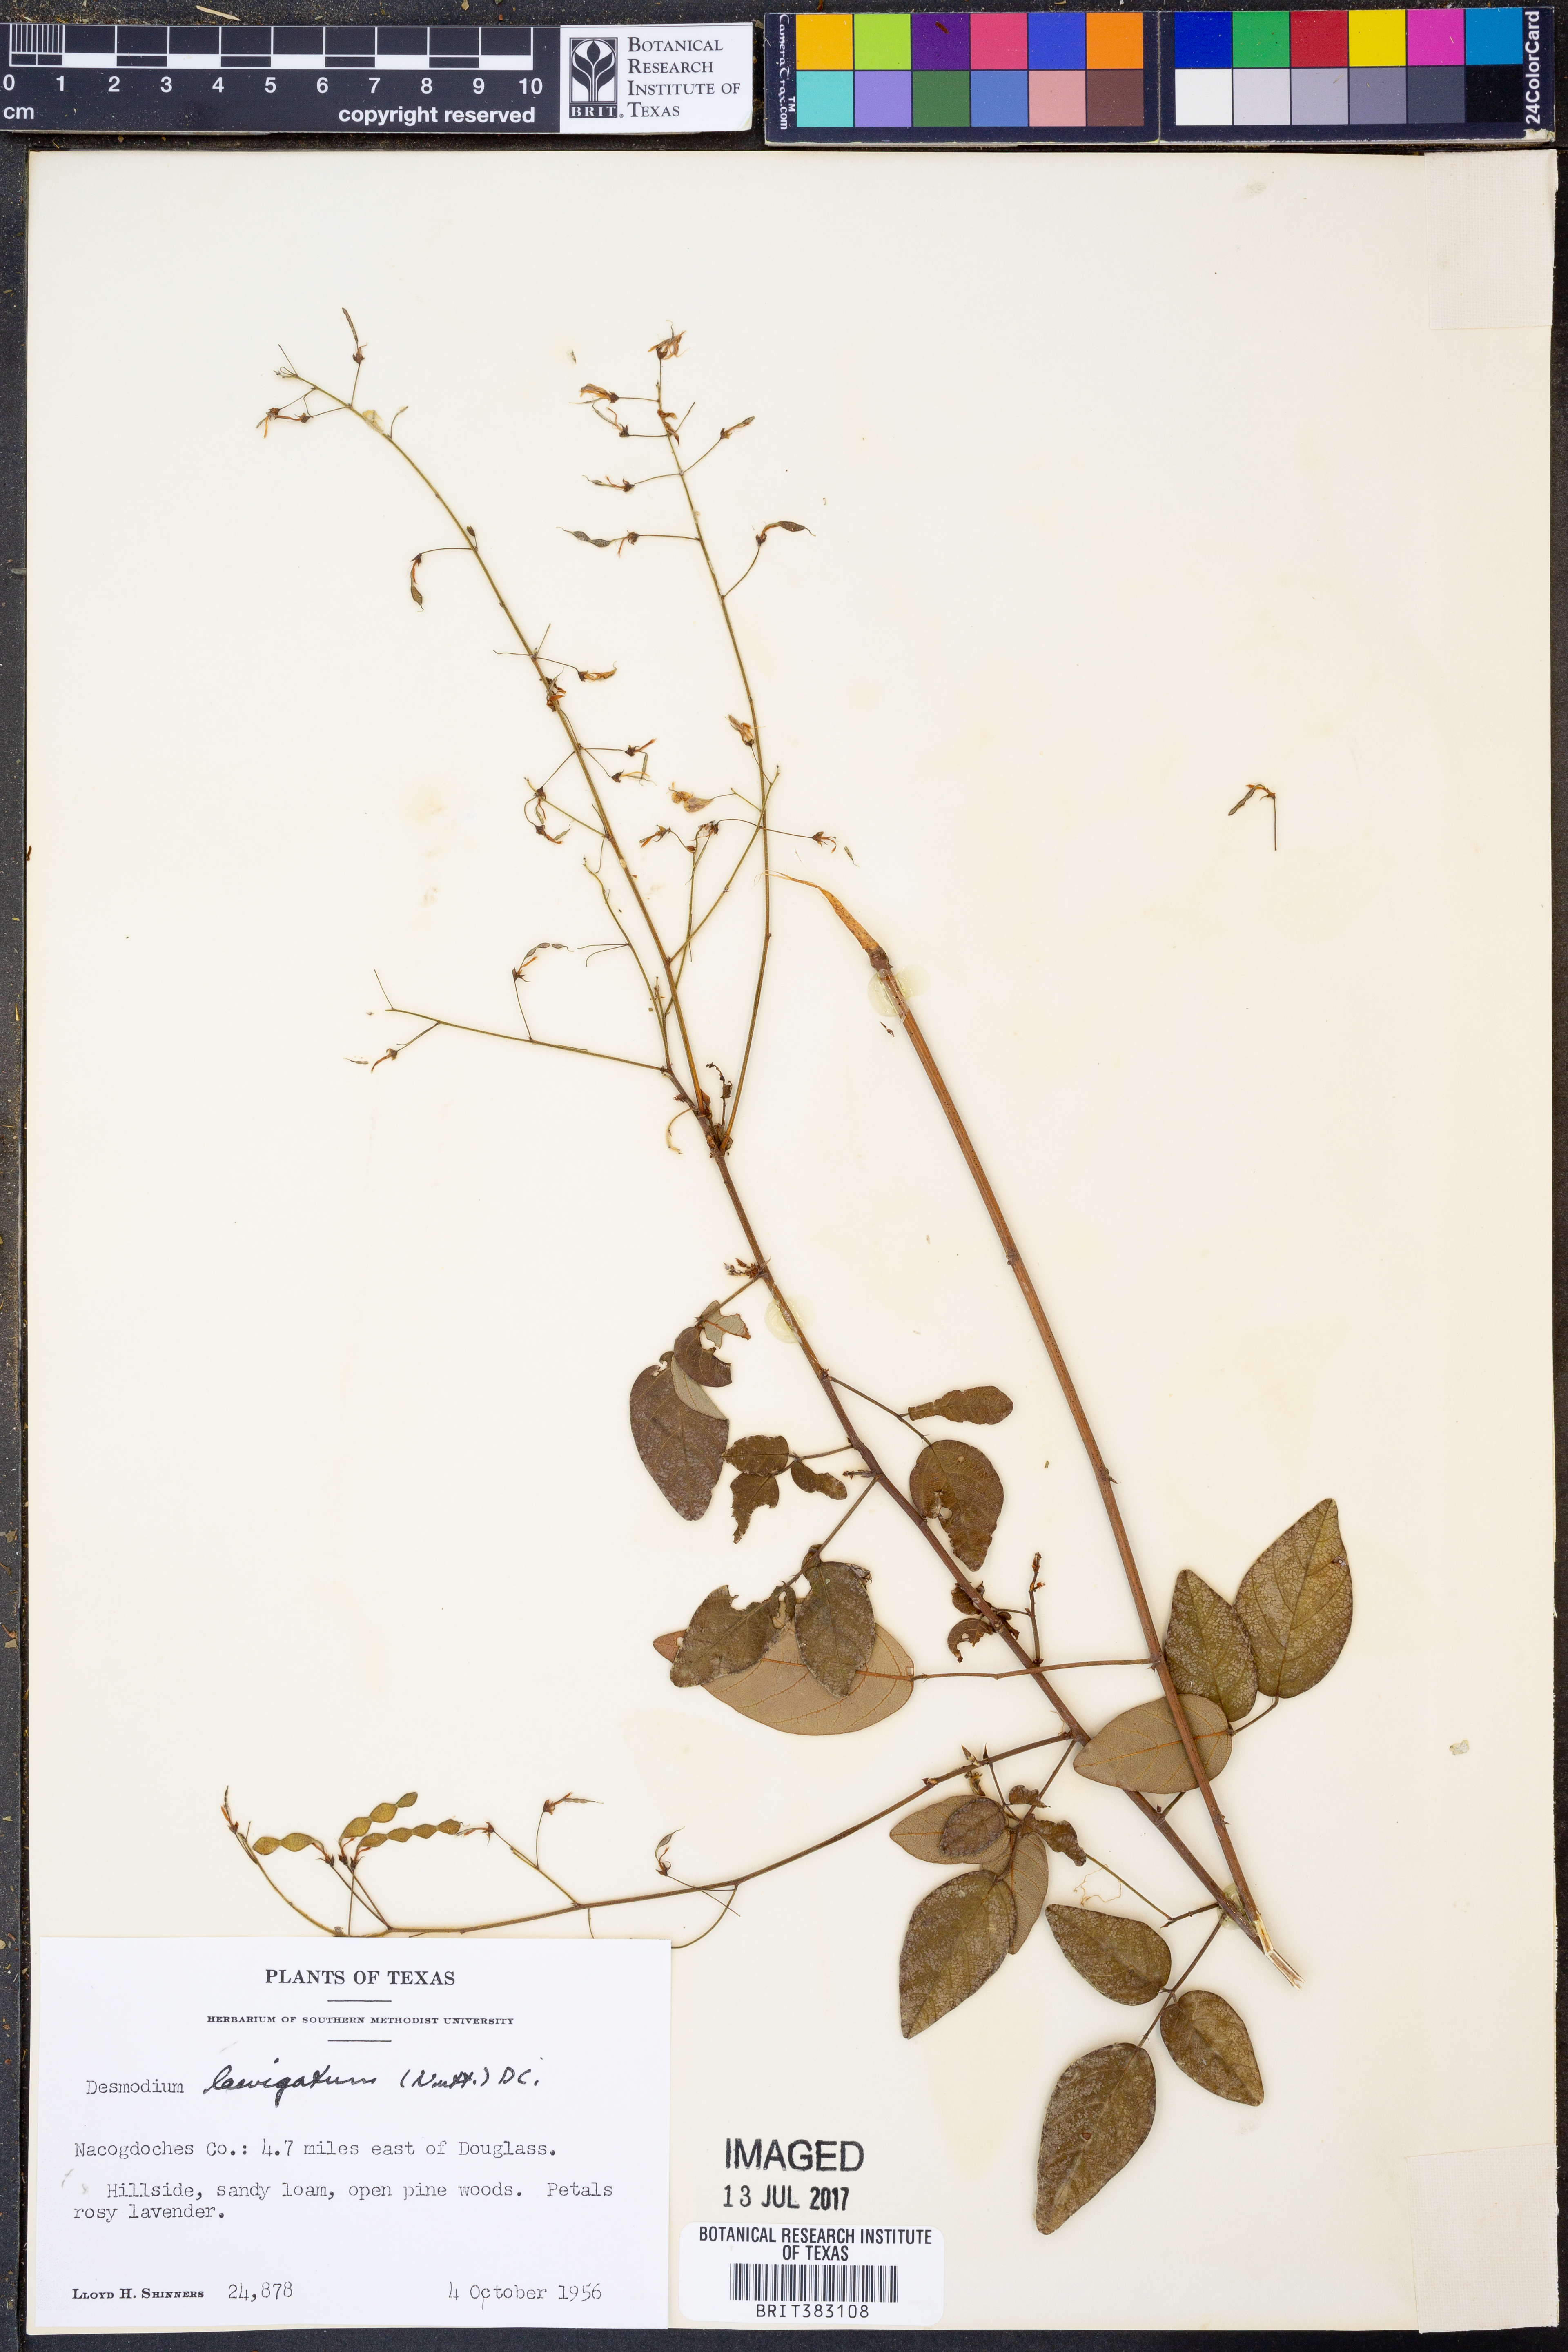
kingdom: Plantae
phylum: Tracheophyta
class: Magnoliopsida
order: Fabales
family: Fabaceae
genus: Desmodium
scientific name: Desmodium laevigatum
